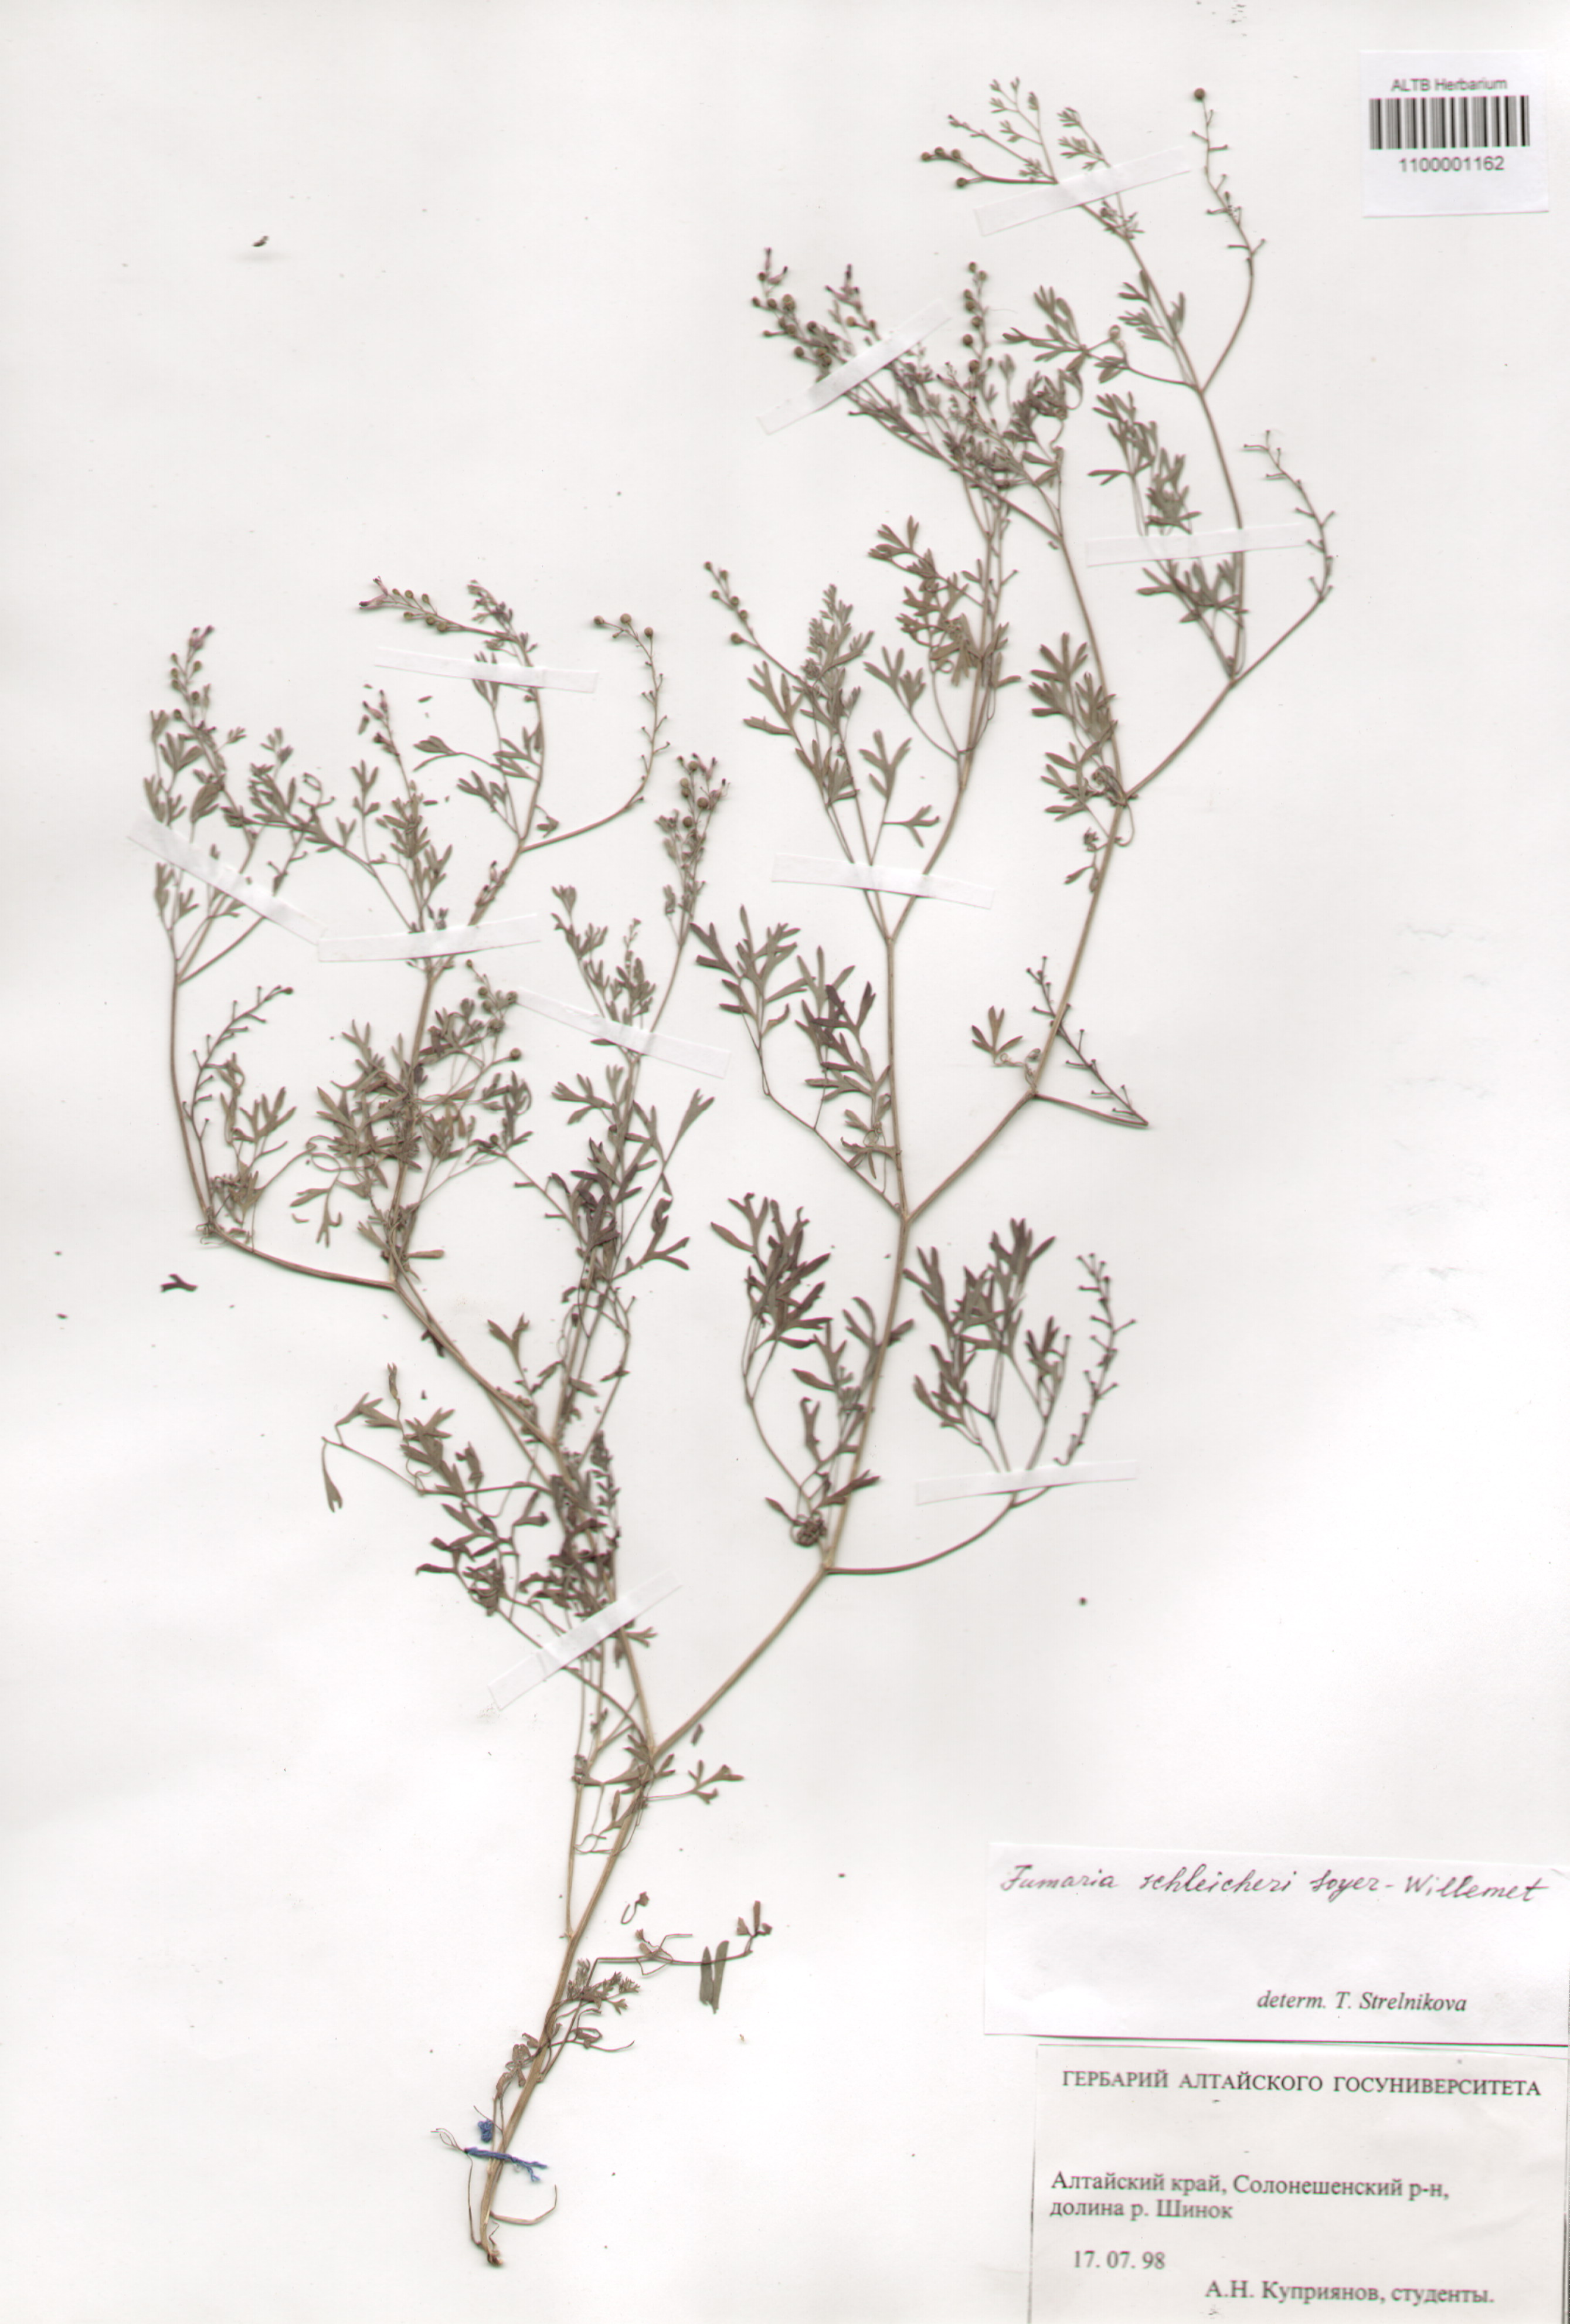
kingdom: Plantae
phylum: Tracheophyta
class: Magnoliopsida
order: Ranunculales
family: Papaveraceae
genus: Fumaria
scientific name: Fumaria schleicheri
